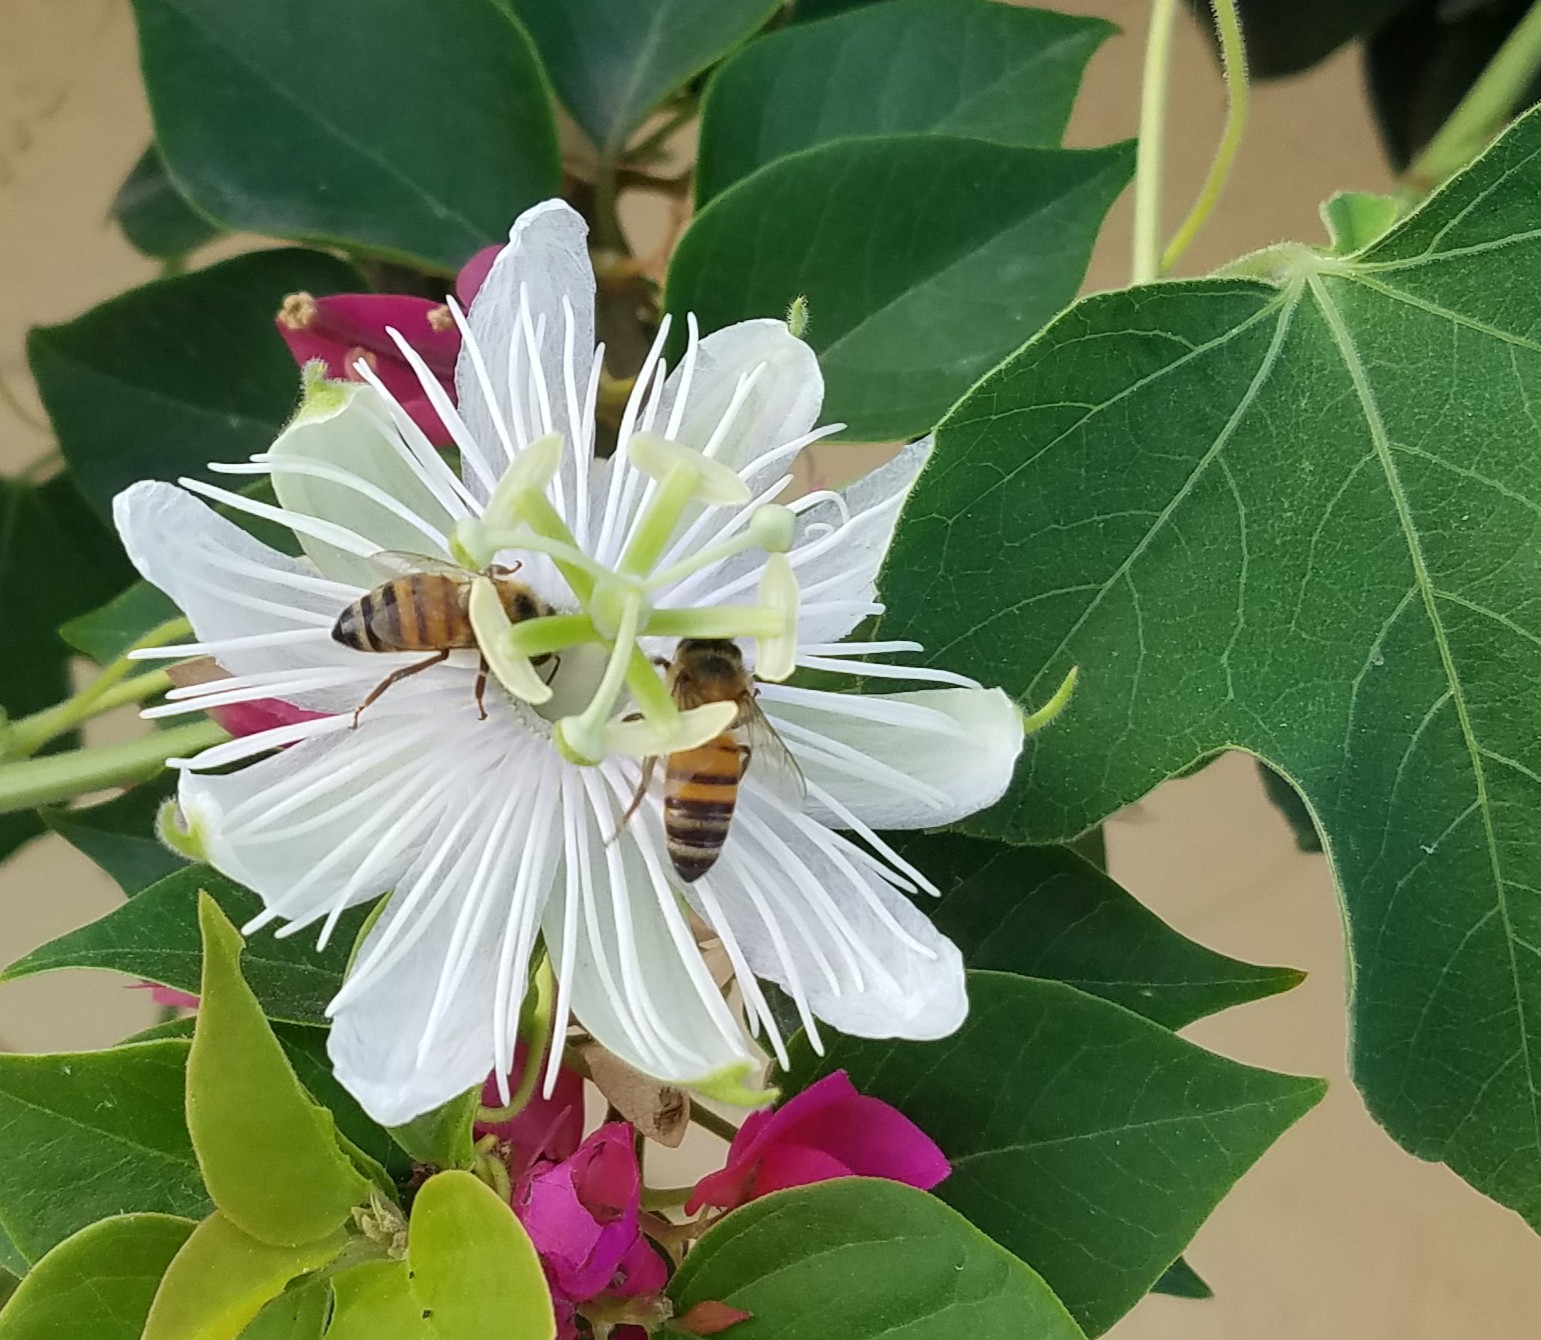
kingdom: Plantae
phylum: Tracheophyta
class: Magnoliopsida
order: Malpighiales
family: Passifloraceae
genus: Passiflora
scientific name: Passiflora foetida
